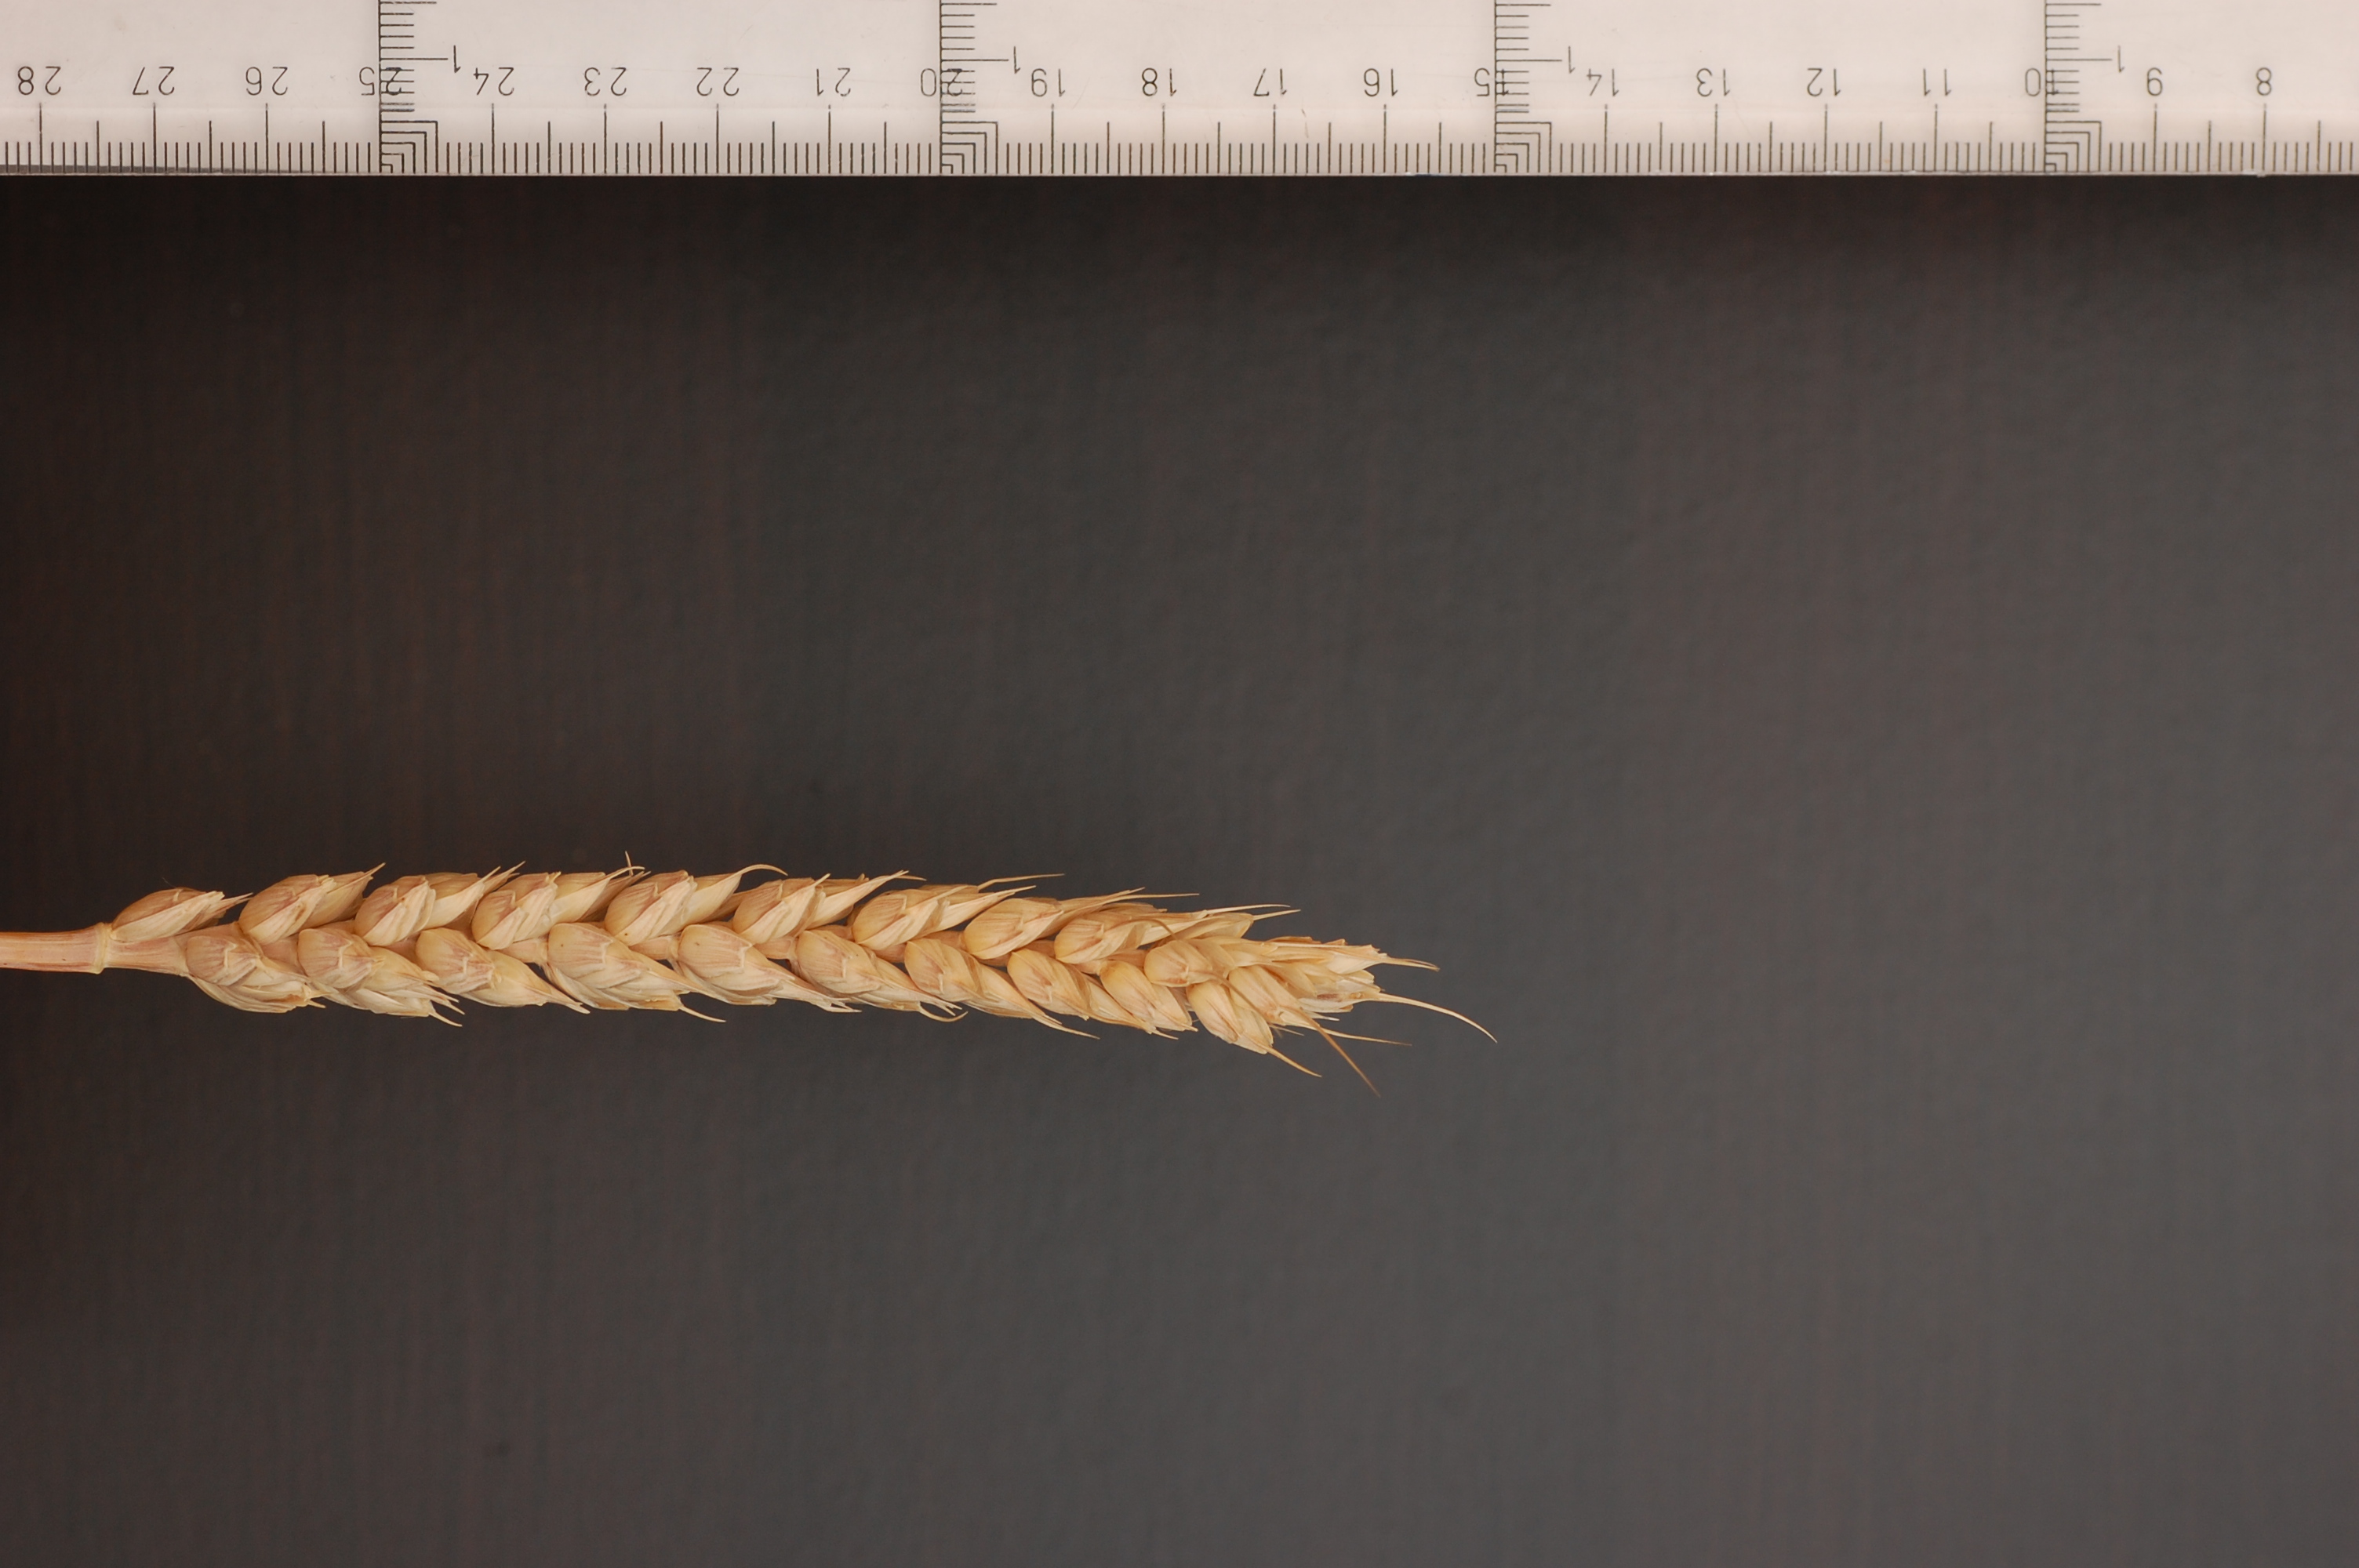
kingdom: Plantae
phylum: Tracheophyta
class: Liliopsida
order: Poales
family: Poaceae
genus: Triticum
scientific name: Triticum aestivum
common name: Common wheat
